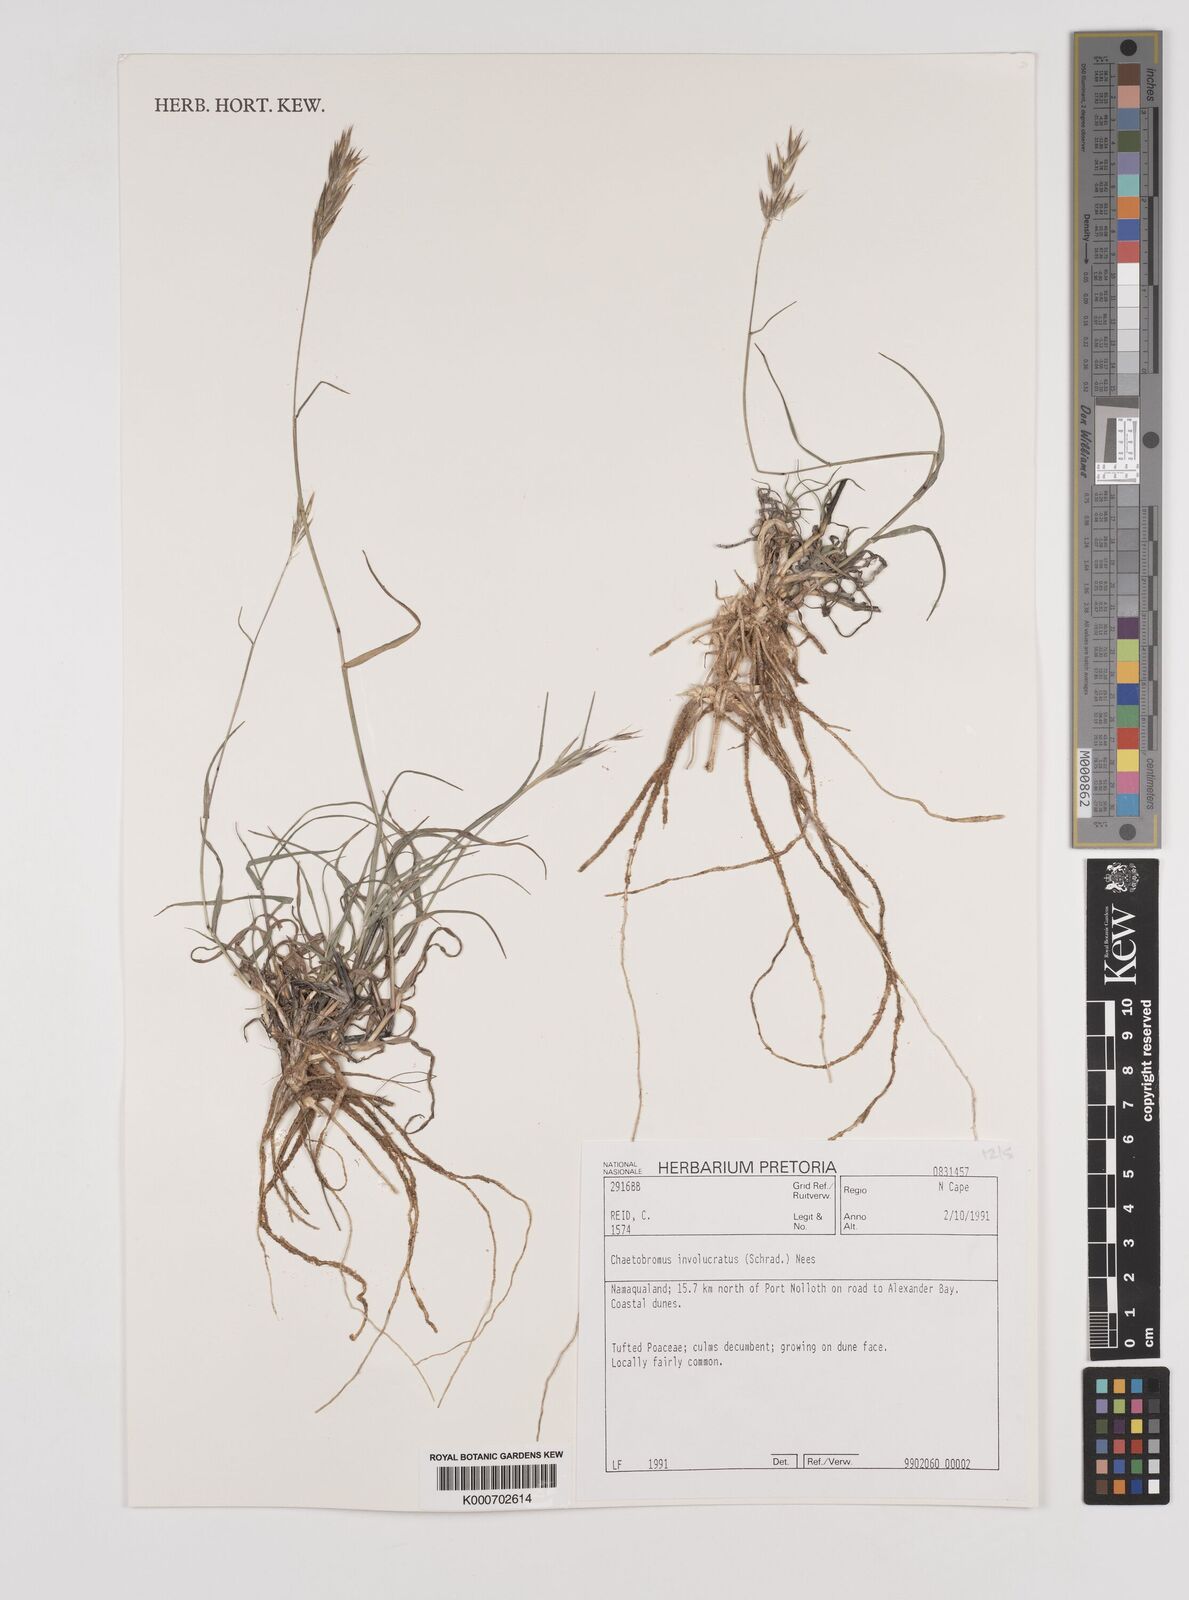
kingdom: Plantae
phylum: Tracheophyta
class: Liliopsida
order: Poales
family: Poaceae
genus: Chaetobromus
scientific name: Chaetobromus involucratus
